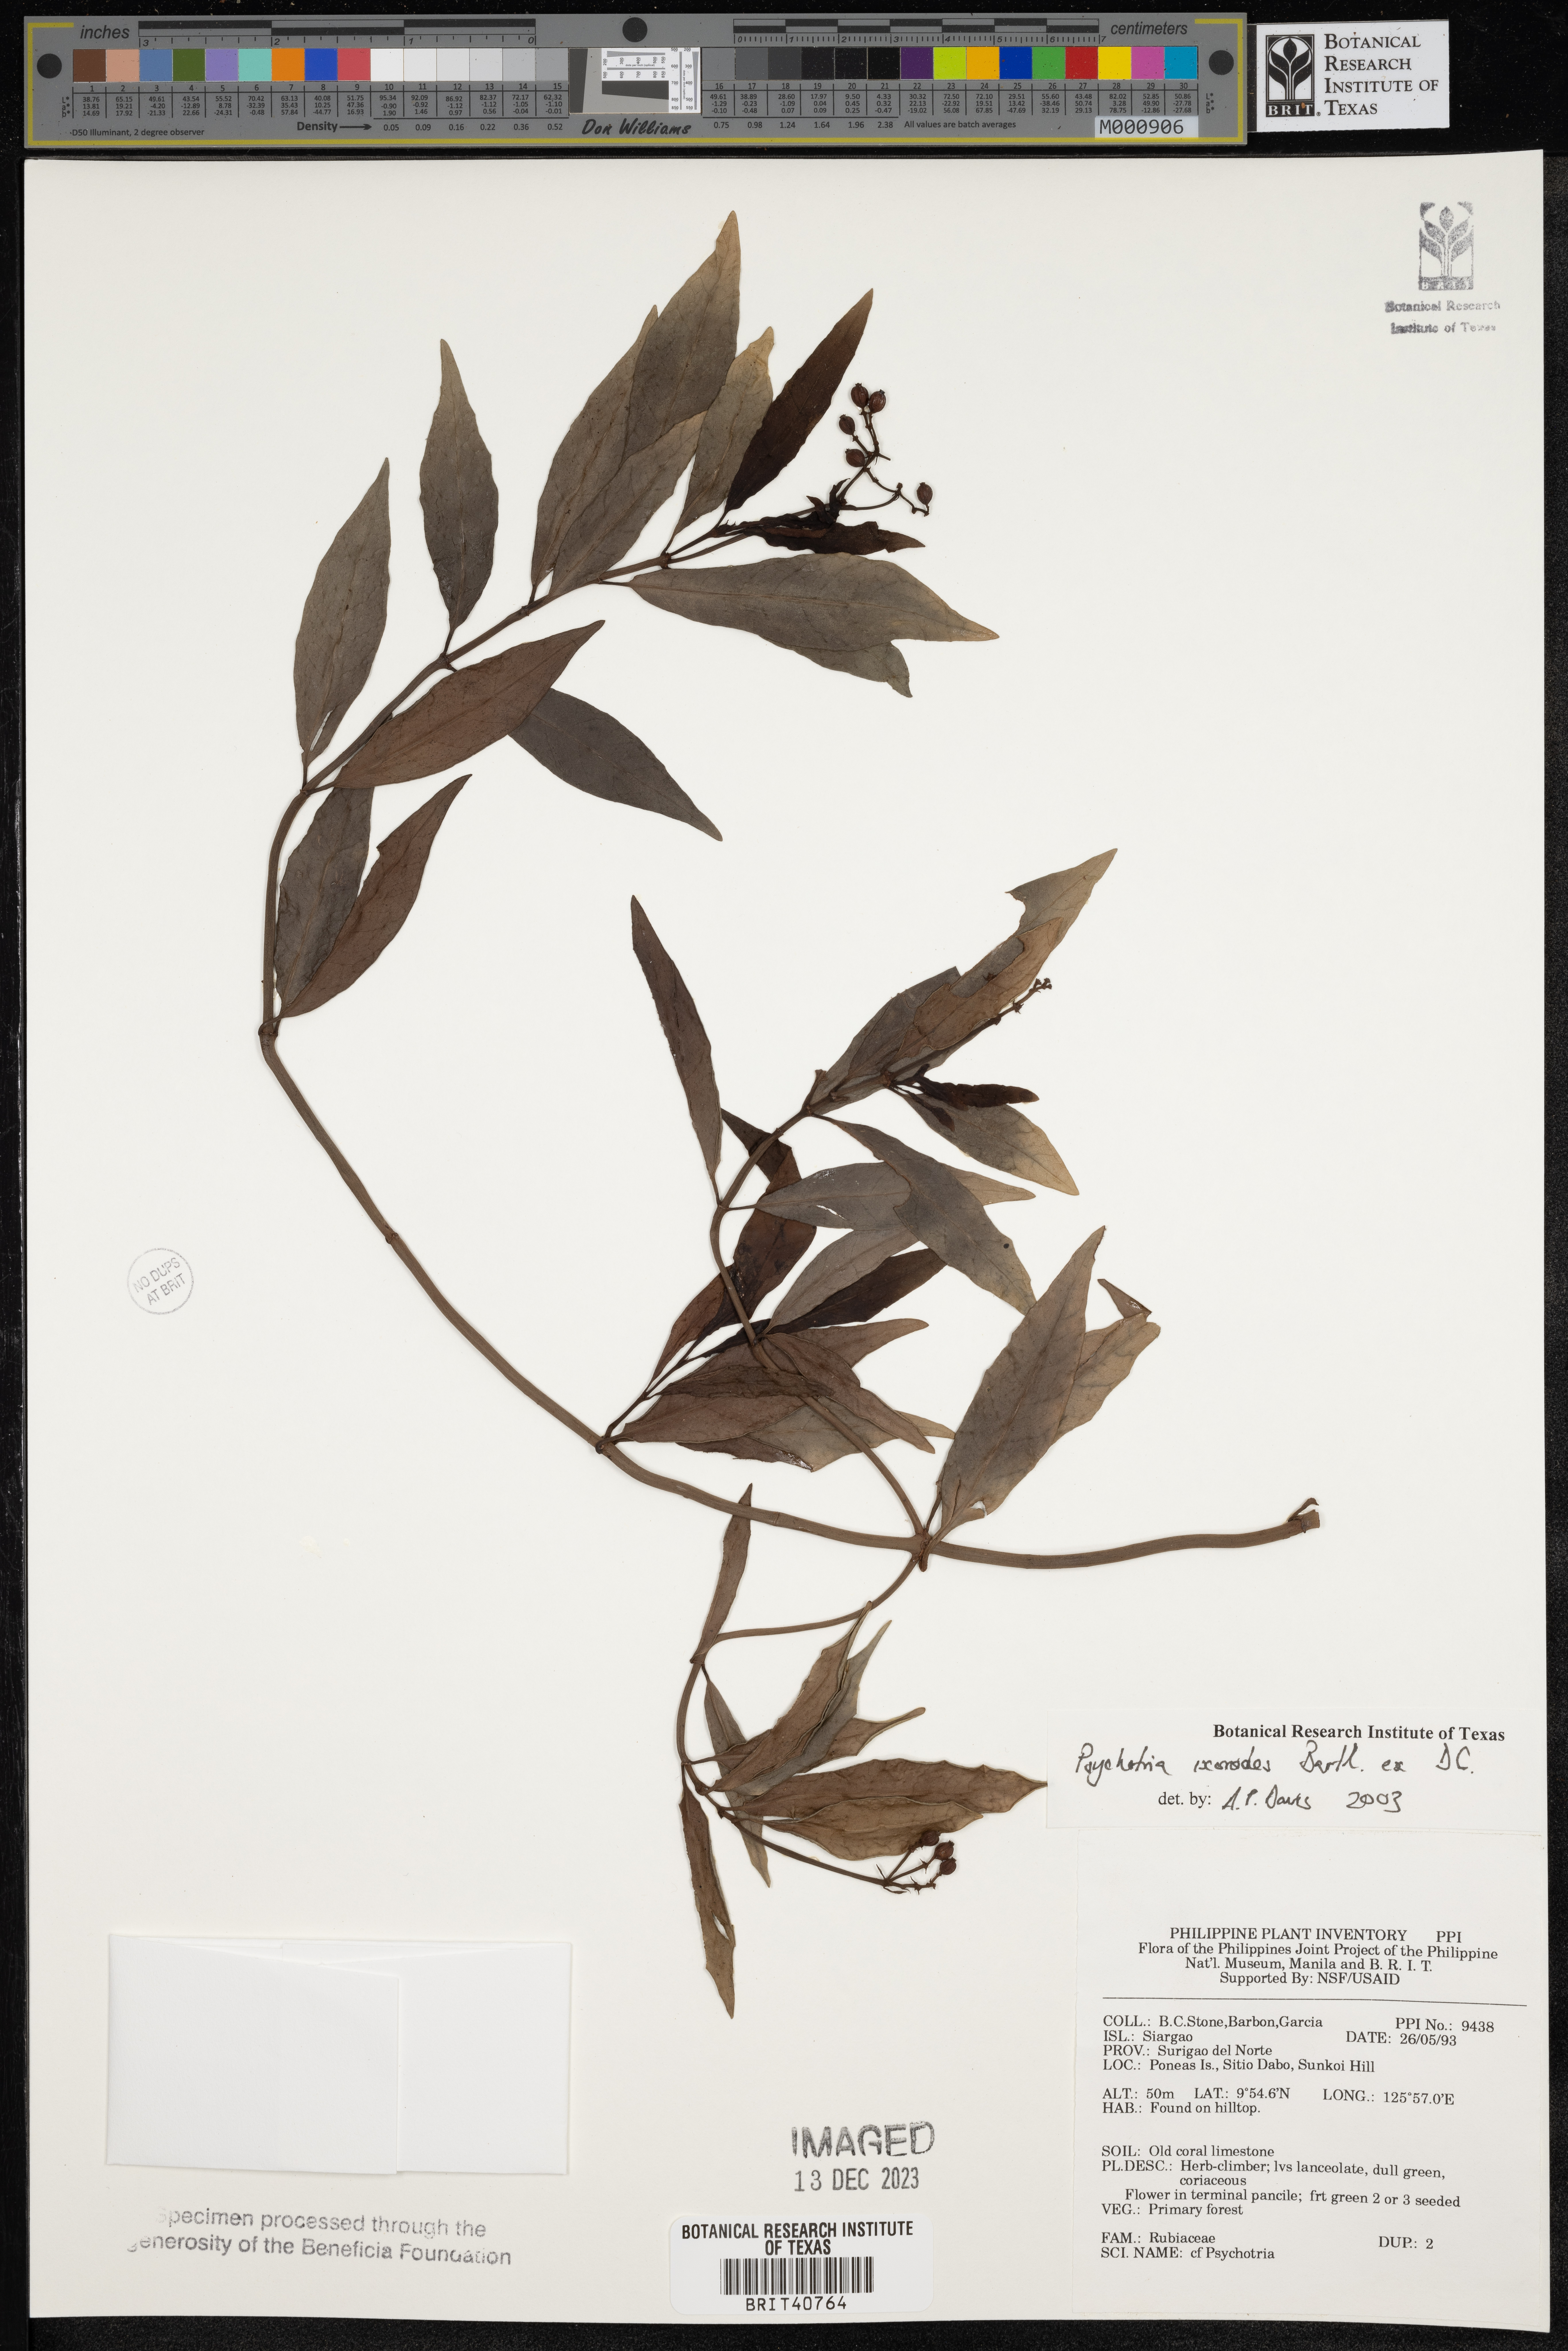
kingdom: Plantae
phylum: Tracheophyta
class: Magnoliopsida
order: Gentianales
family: Rubiaceae
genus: Psychotria
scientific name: Psychotria ixoroides
